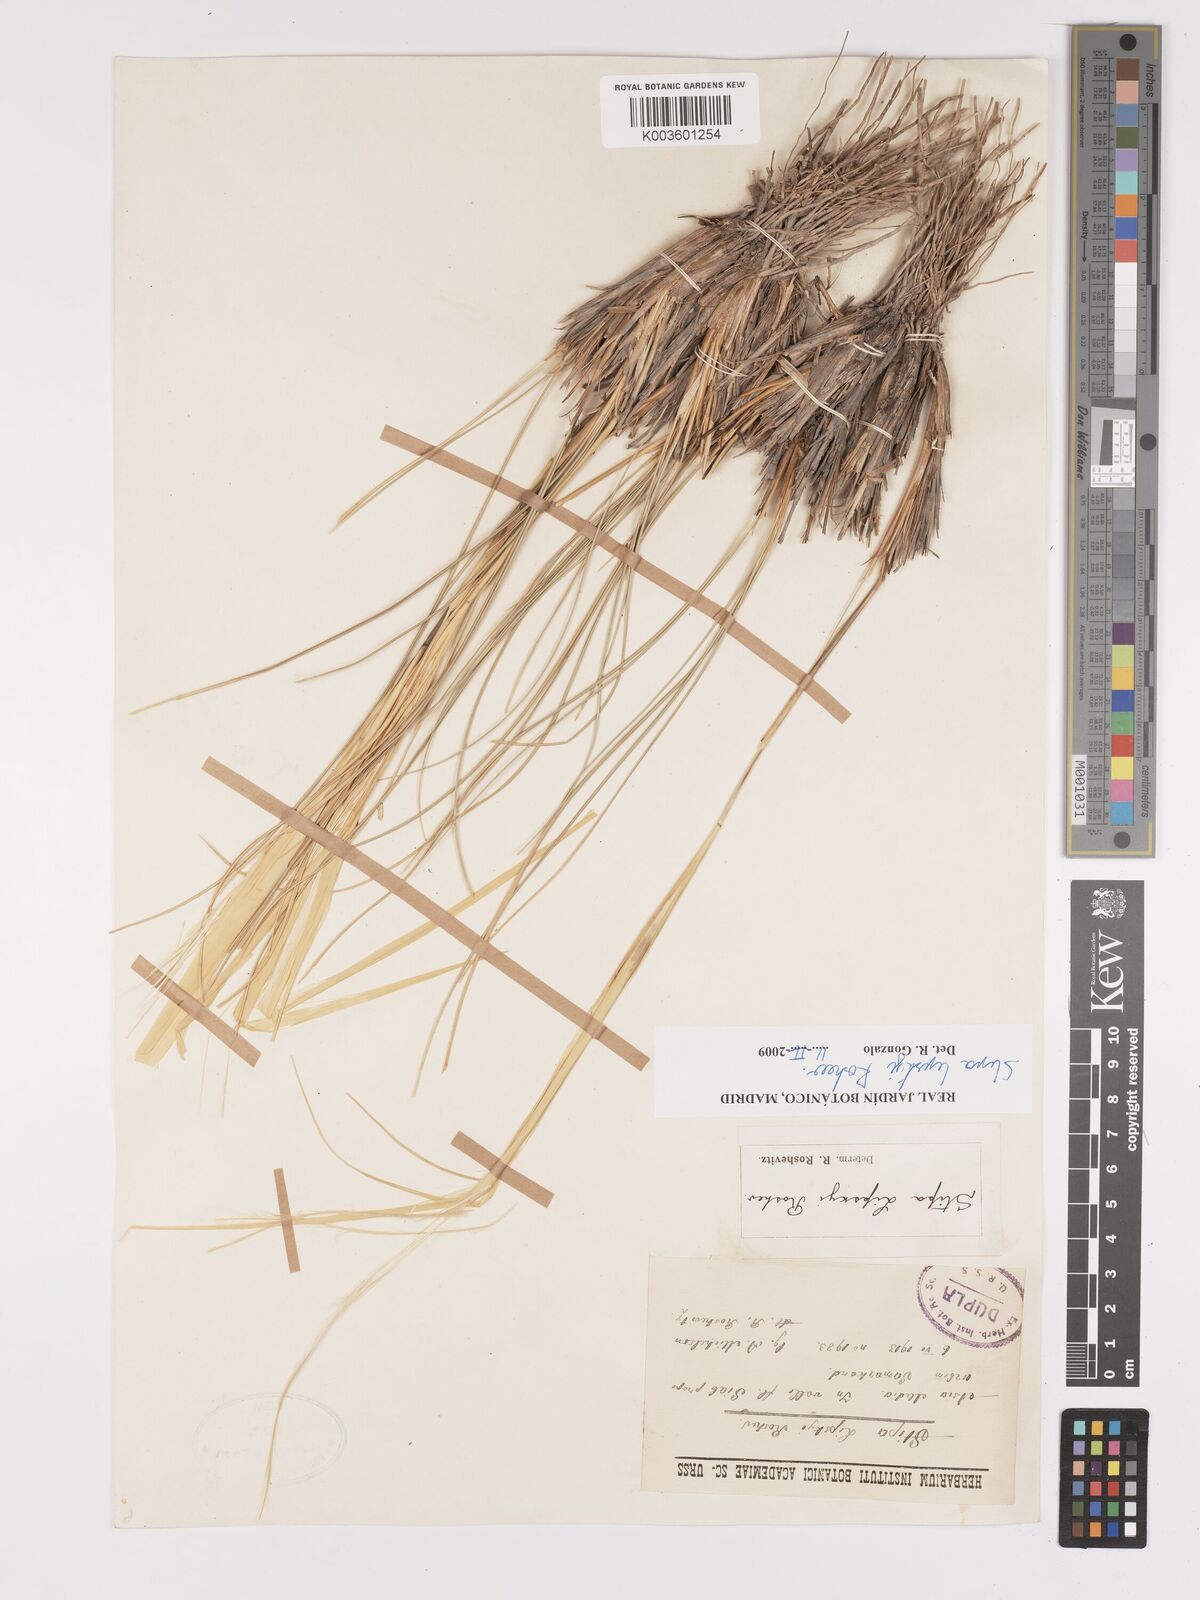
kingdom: Plantae
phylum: Tracheophyta
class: Liliopsida
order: Poales
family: Poaceae
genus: Stipa
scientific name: Stipa lipskyi
